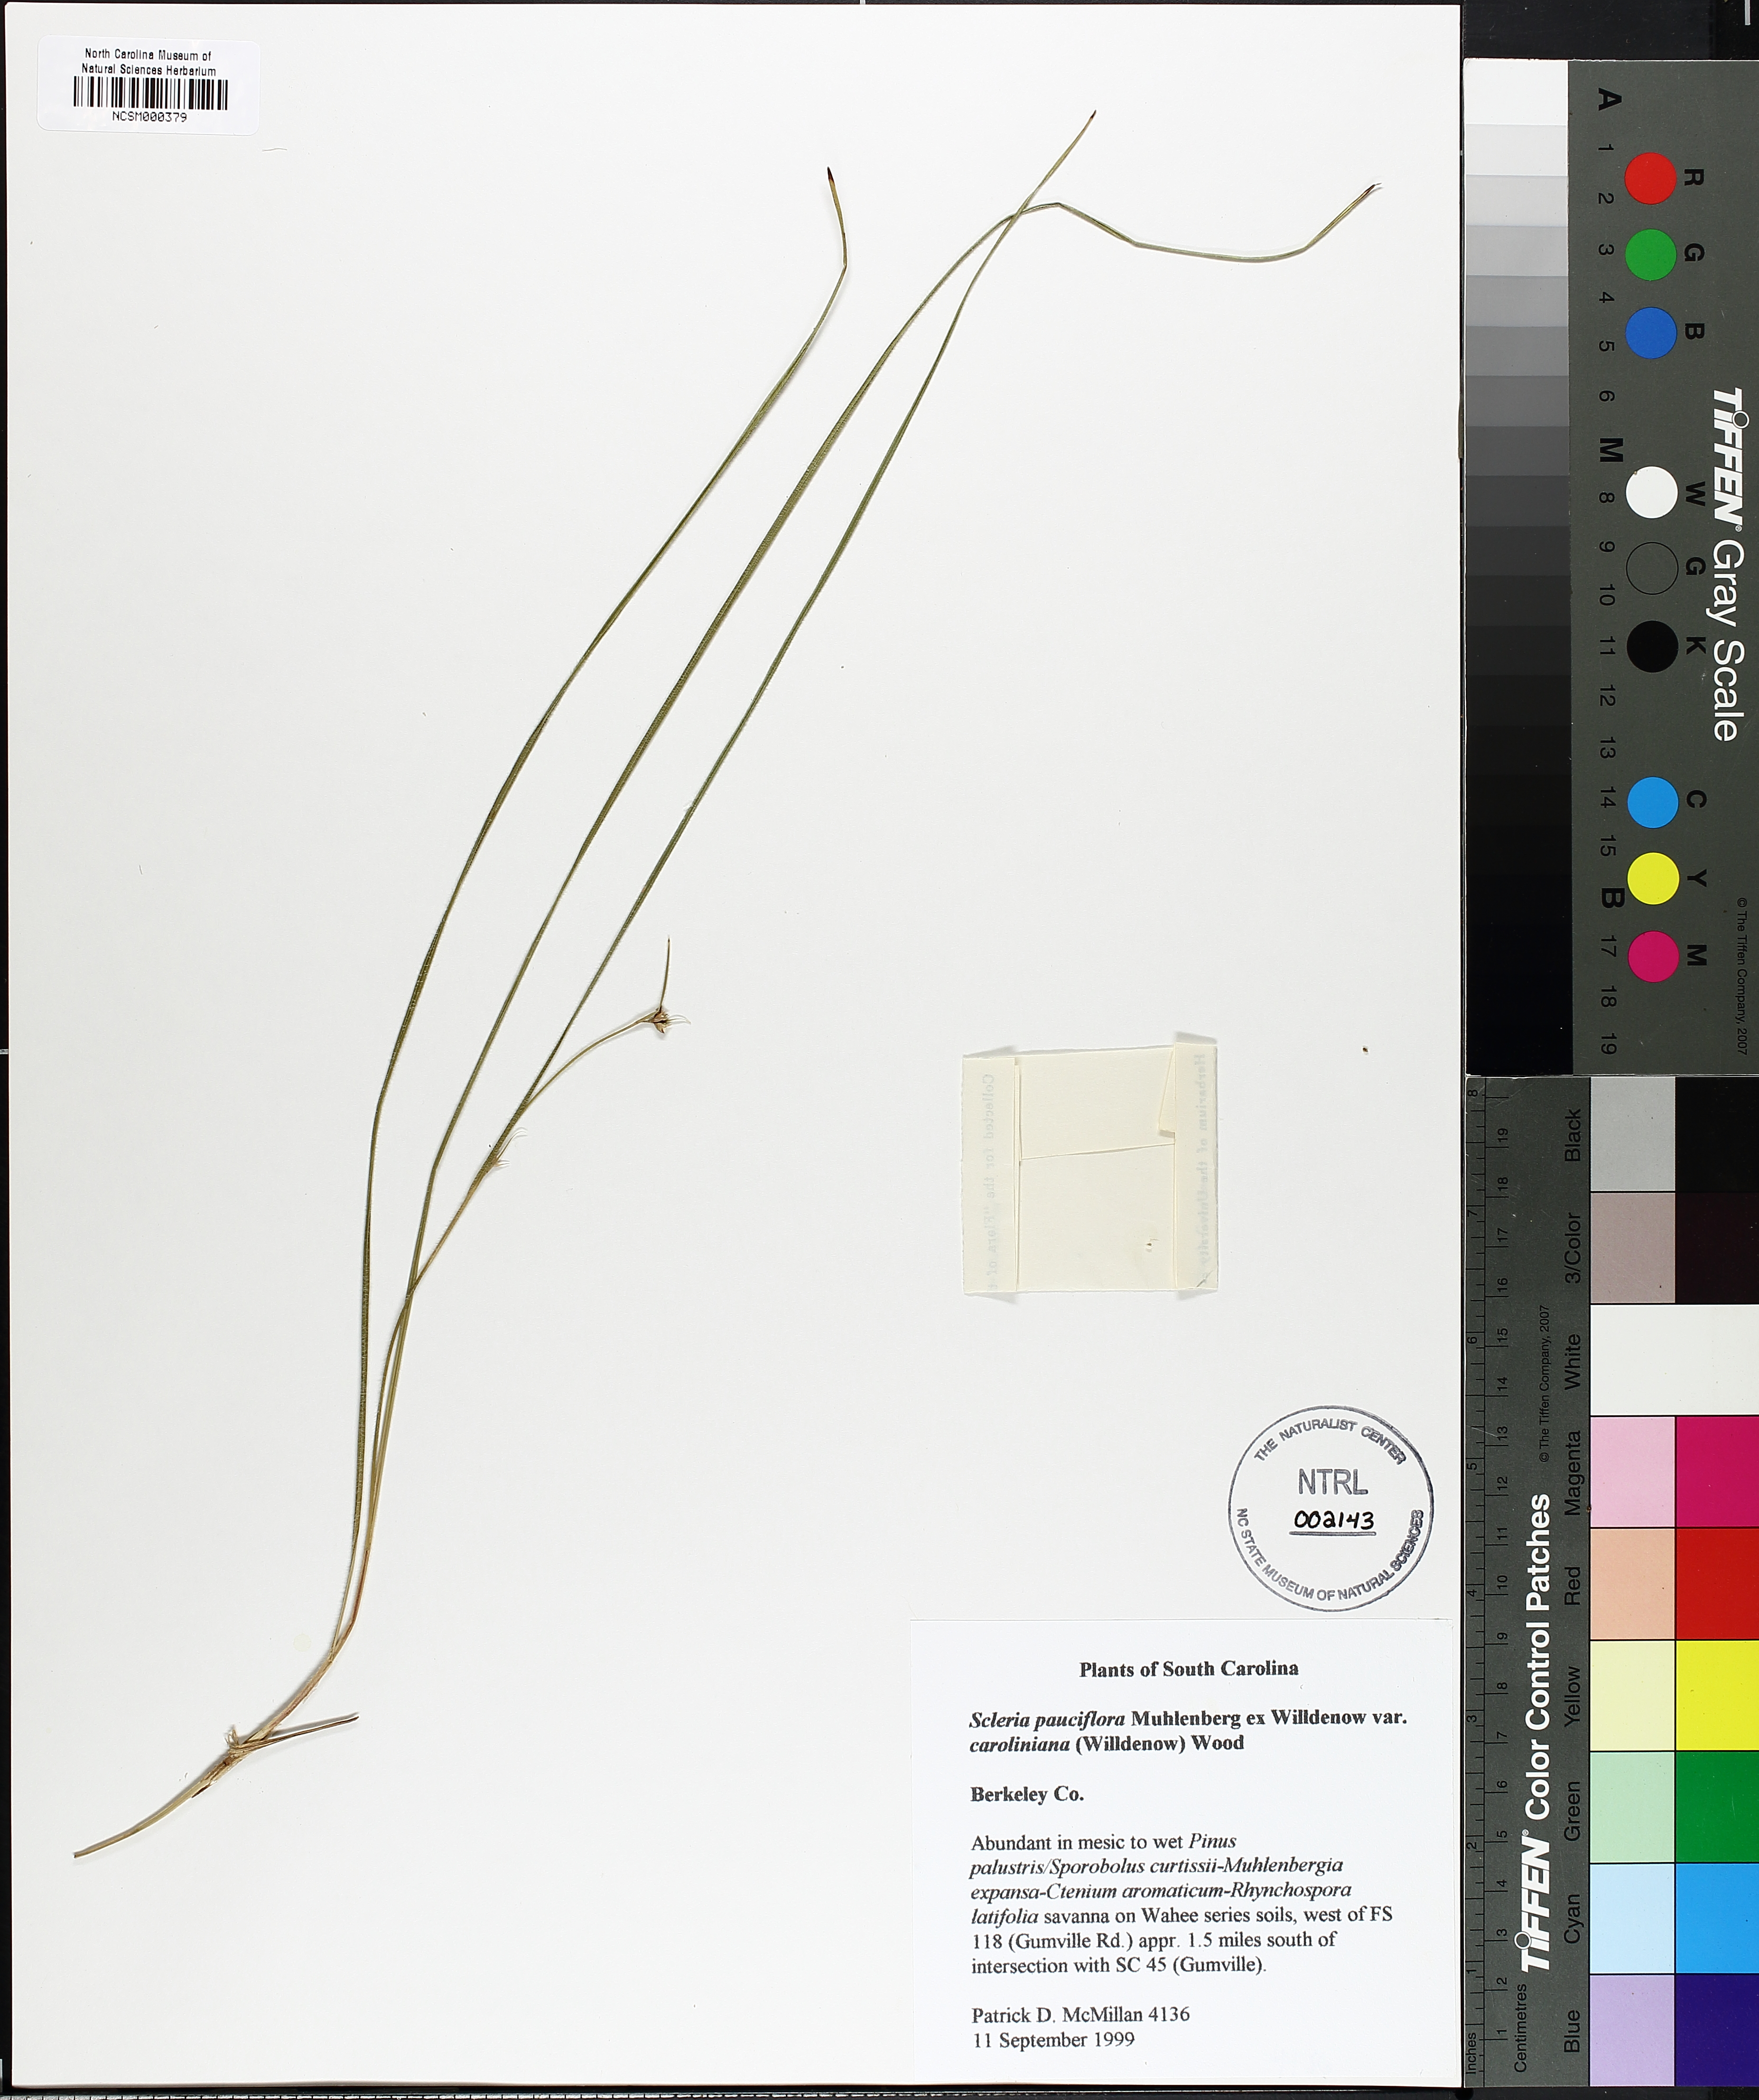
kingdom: Plantae
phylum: Tracheophyta
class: Liliopsida
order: Poales
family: Cyperaceae
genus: Scleria
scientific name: Scleria pauciflora
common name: Few-flowered nutrush
